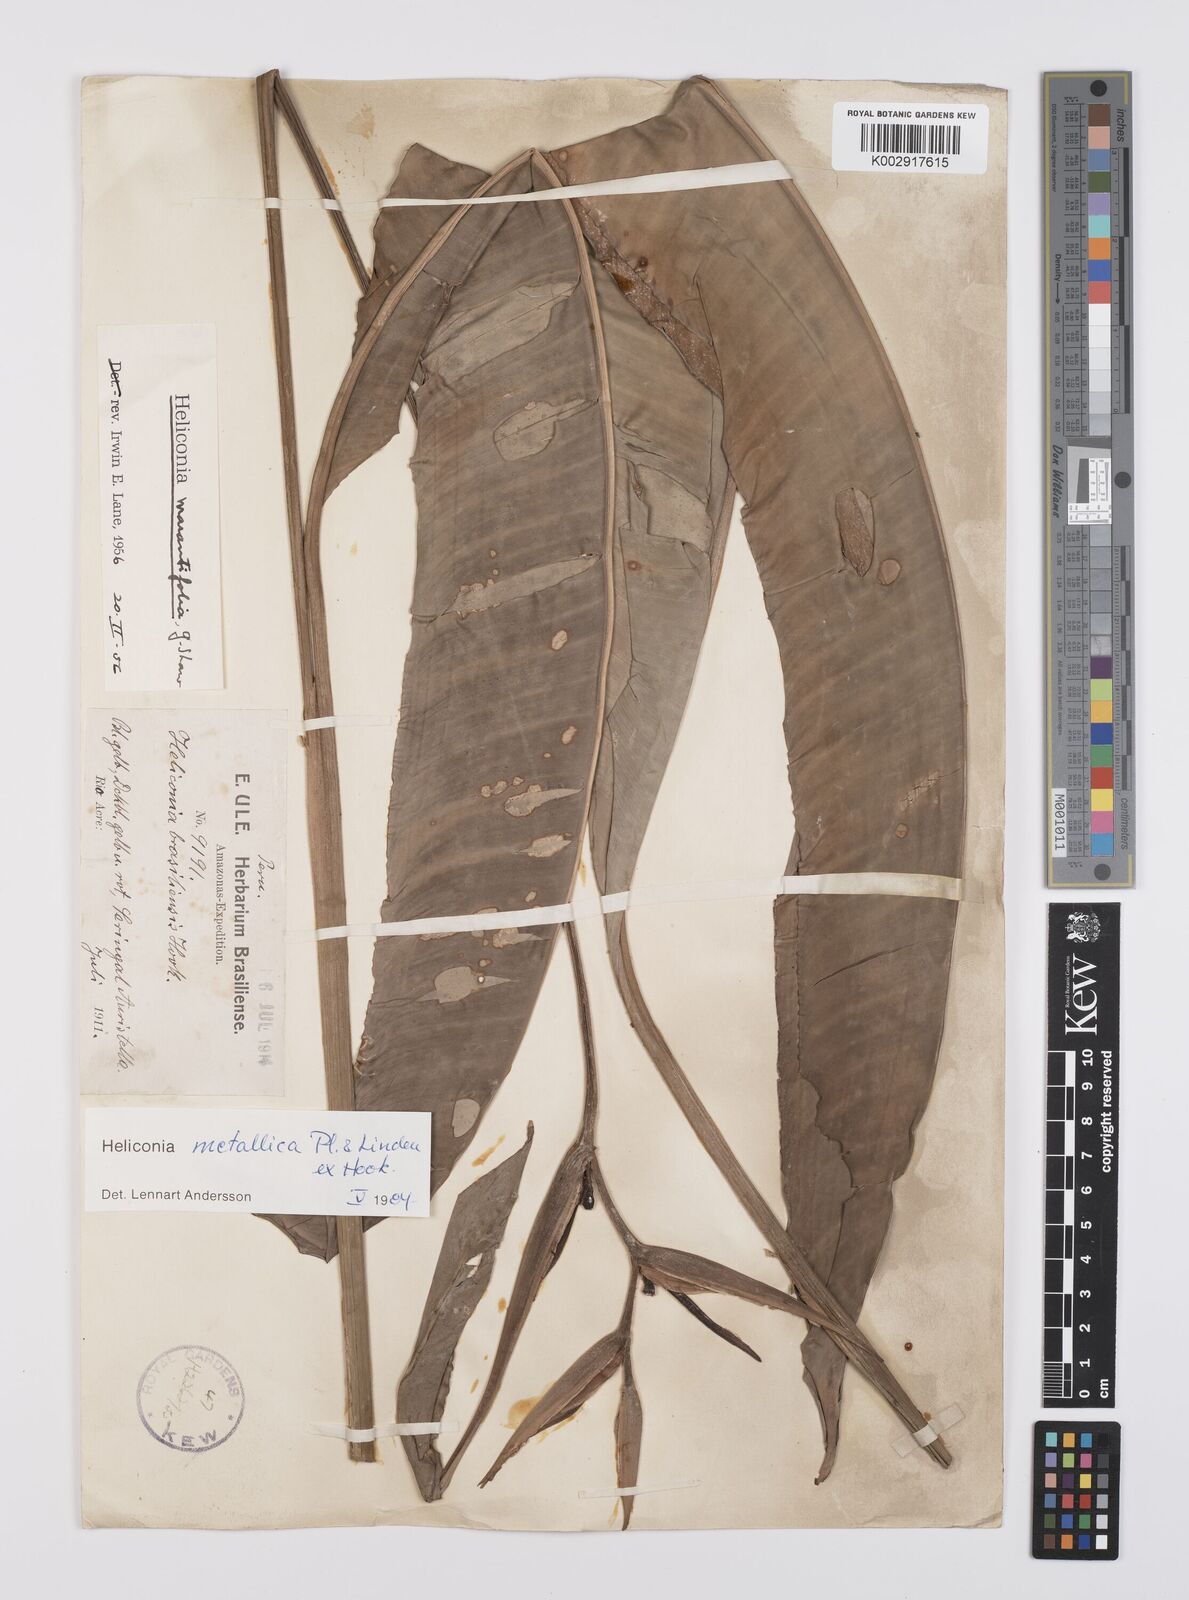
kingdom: Plantae
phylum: Tracheophyta
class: Liliopsida
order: Zingiberales
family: Heliconiaceae
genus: Heliconia
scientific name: Heliconia metallica
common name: Shining bird of paradise
